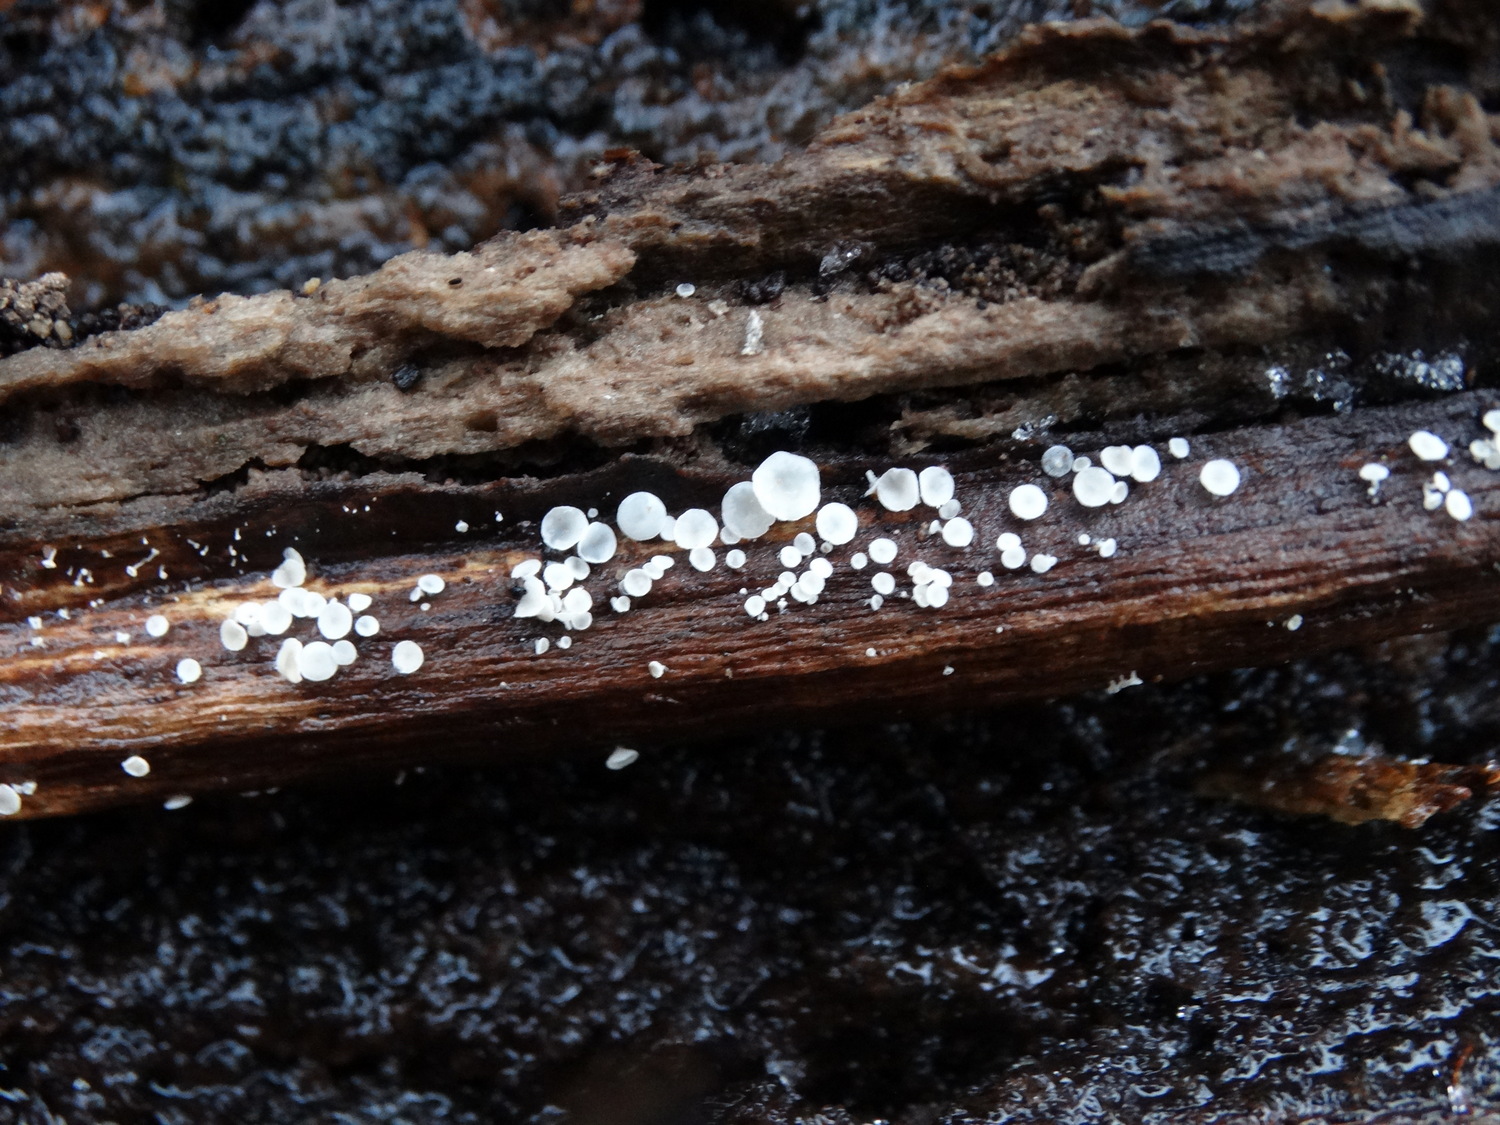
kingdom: Fungi
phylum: Ascomycota
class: Leotiomycetes
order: Helotiales
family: Lachnaceae
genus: Lachnum
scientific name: Lachnum
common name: frynseskive
